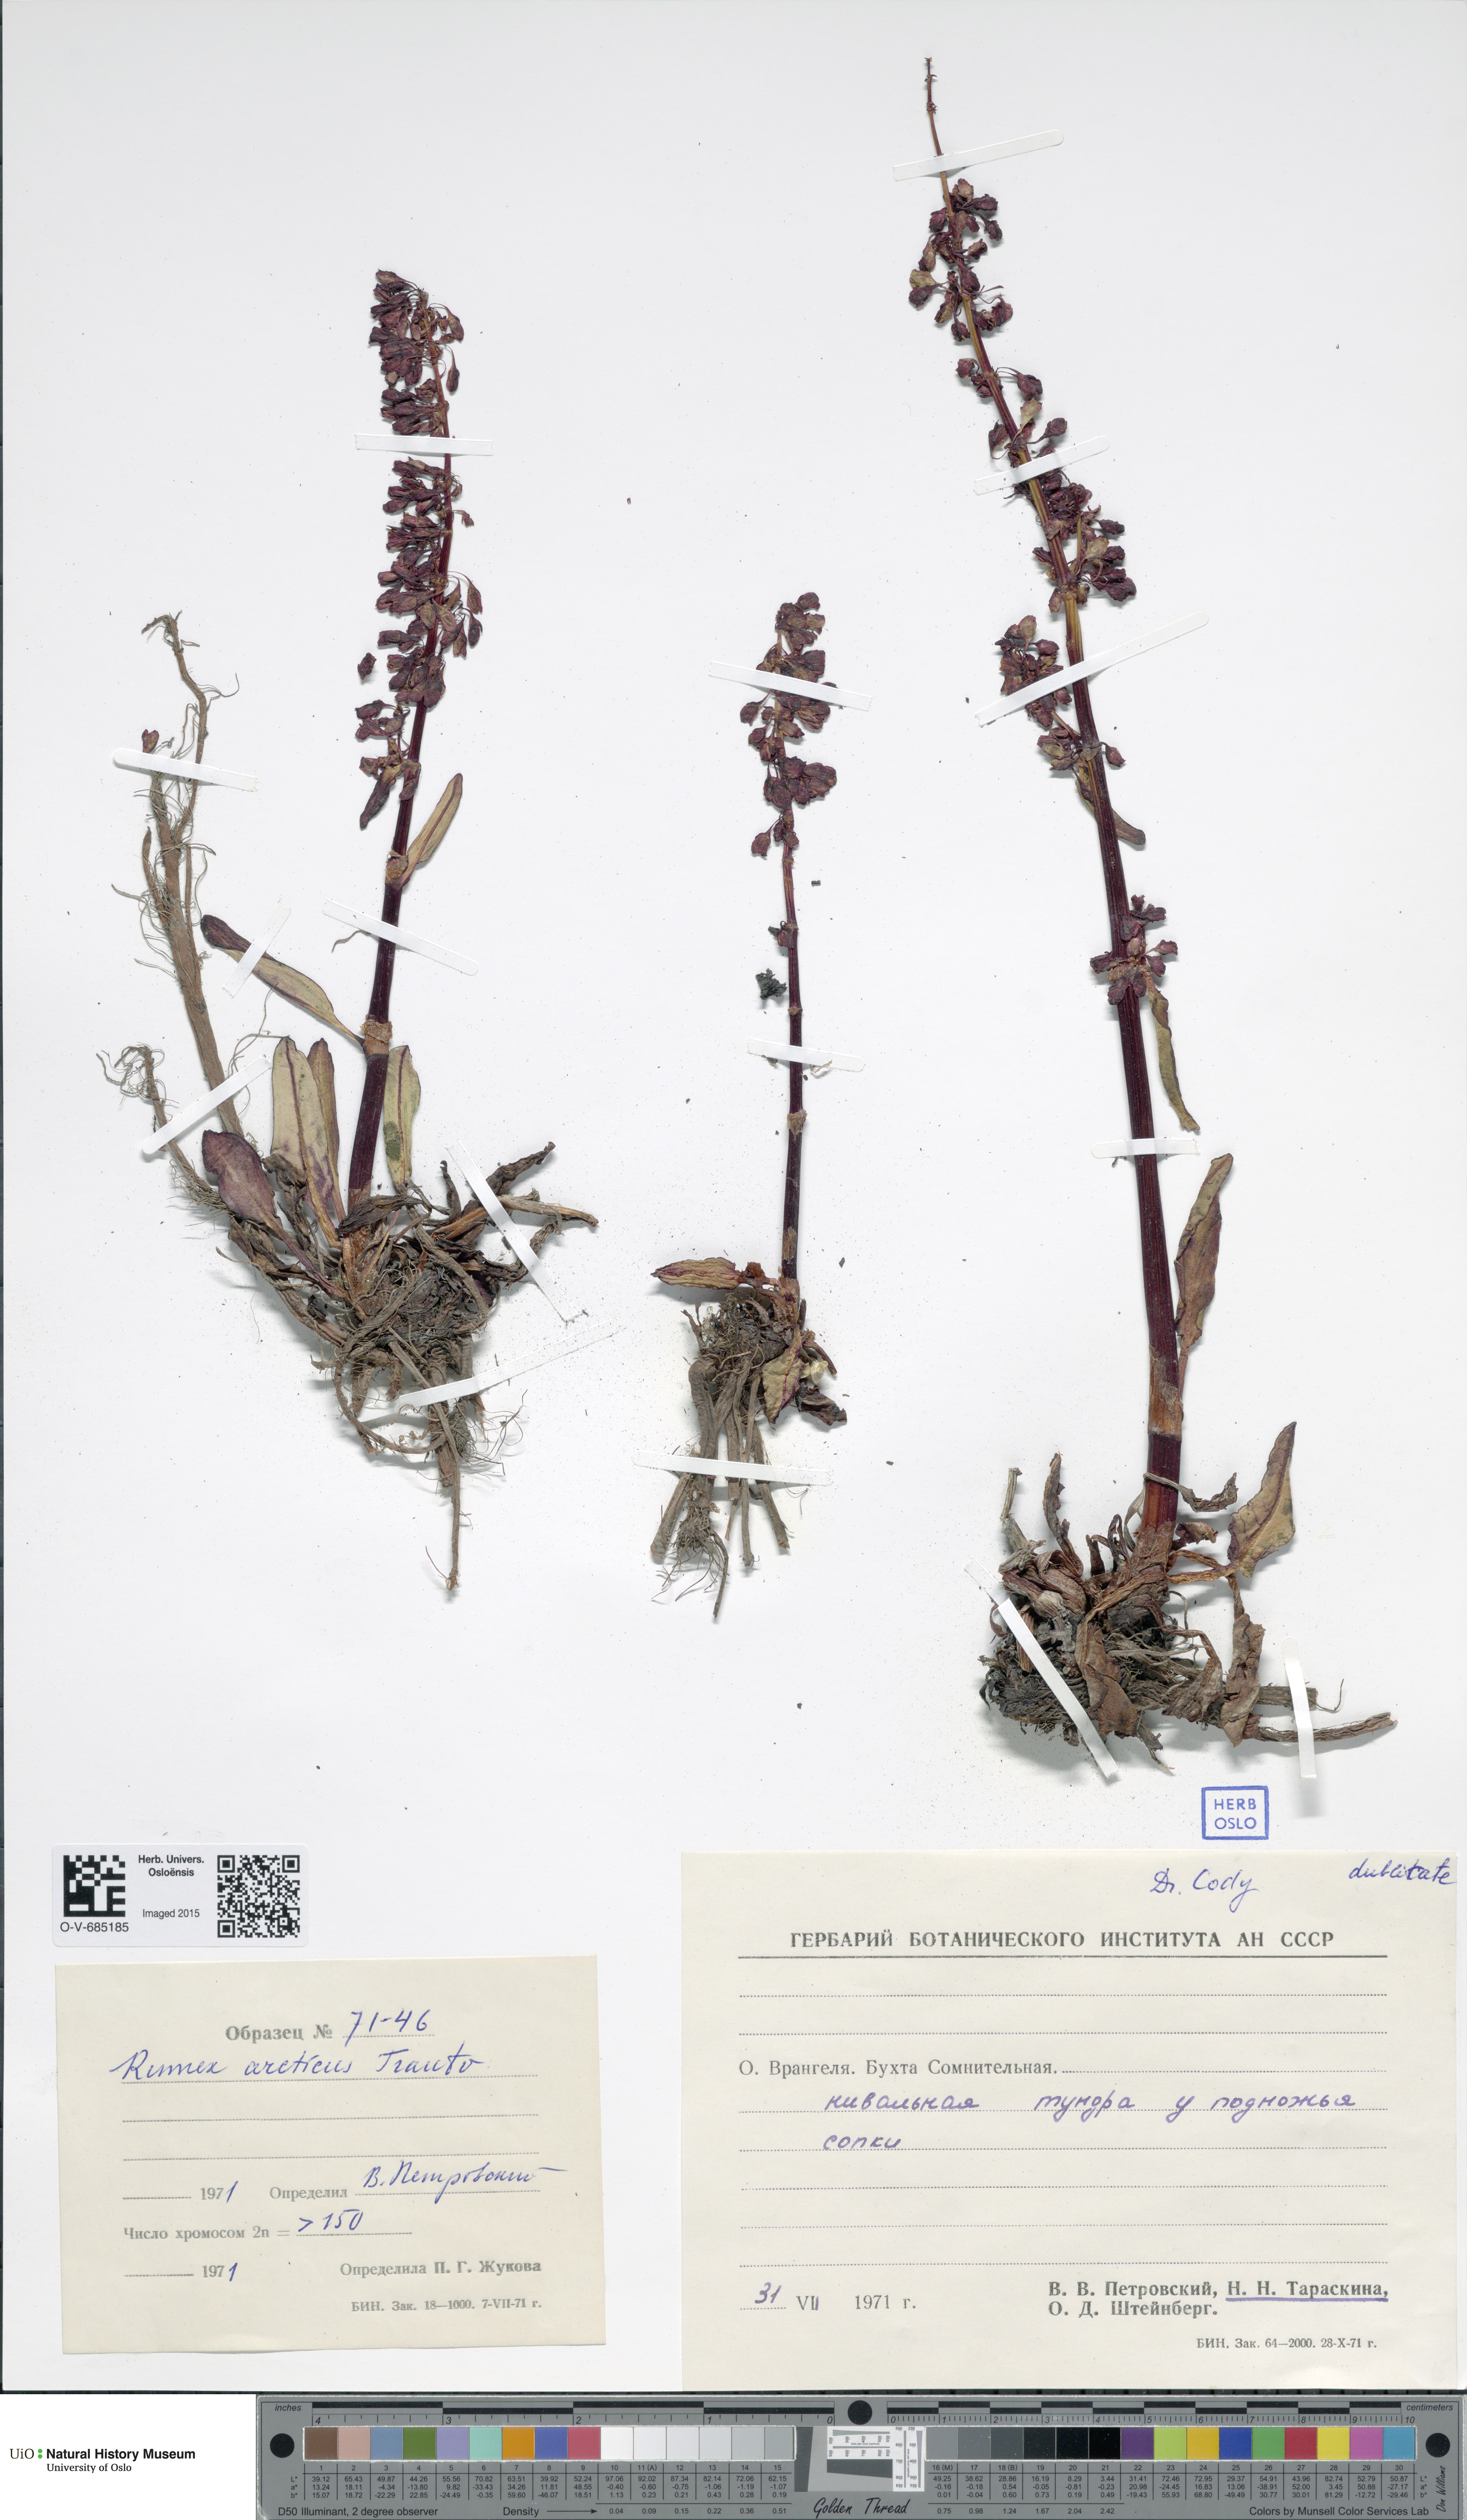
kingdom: Plantae
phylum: Tracheophyta
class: Magnoliopsida
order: Caryophyllales
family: Polygonaceae
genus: Rumex
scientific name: Rumex arcticus
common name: Arctic dock
